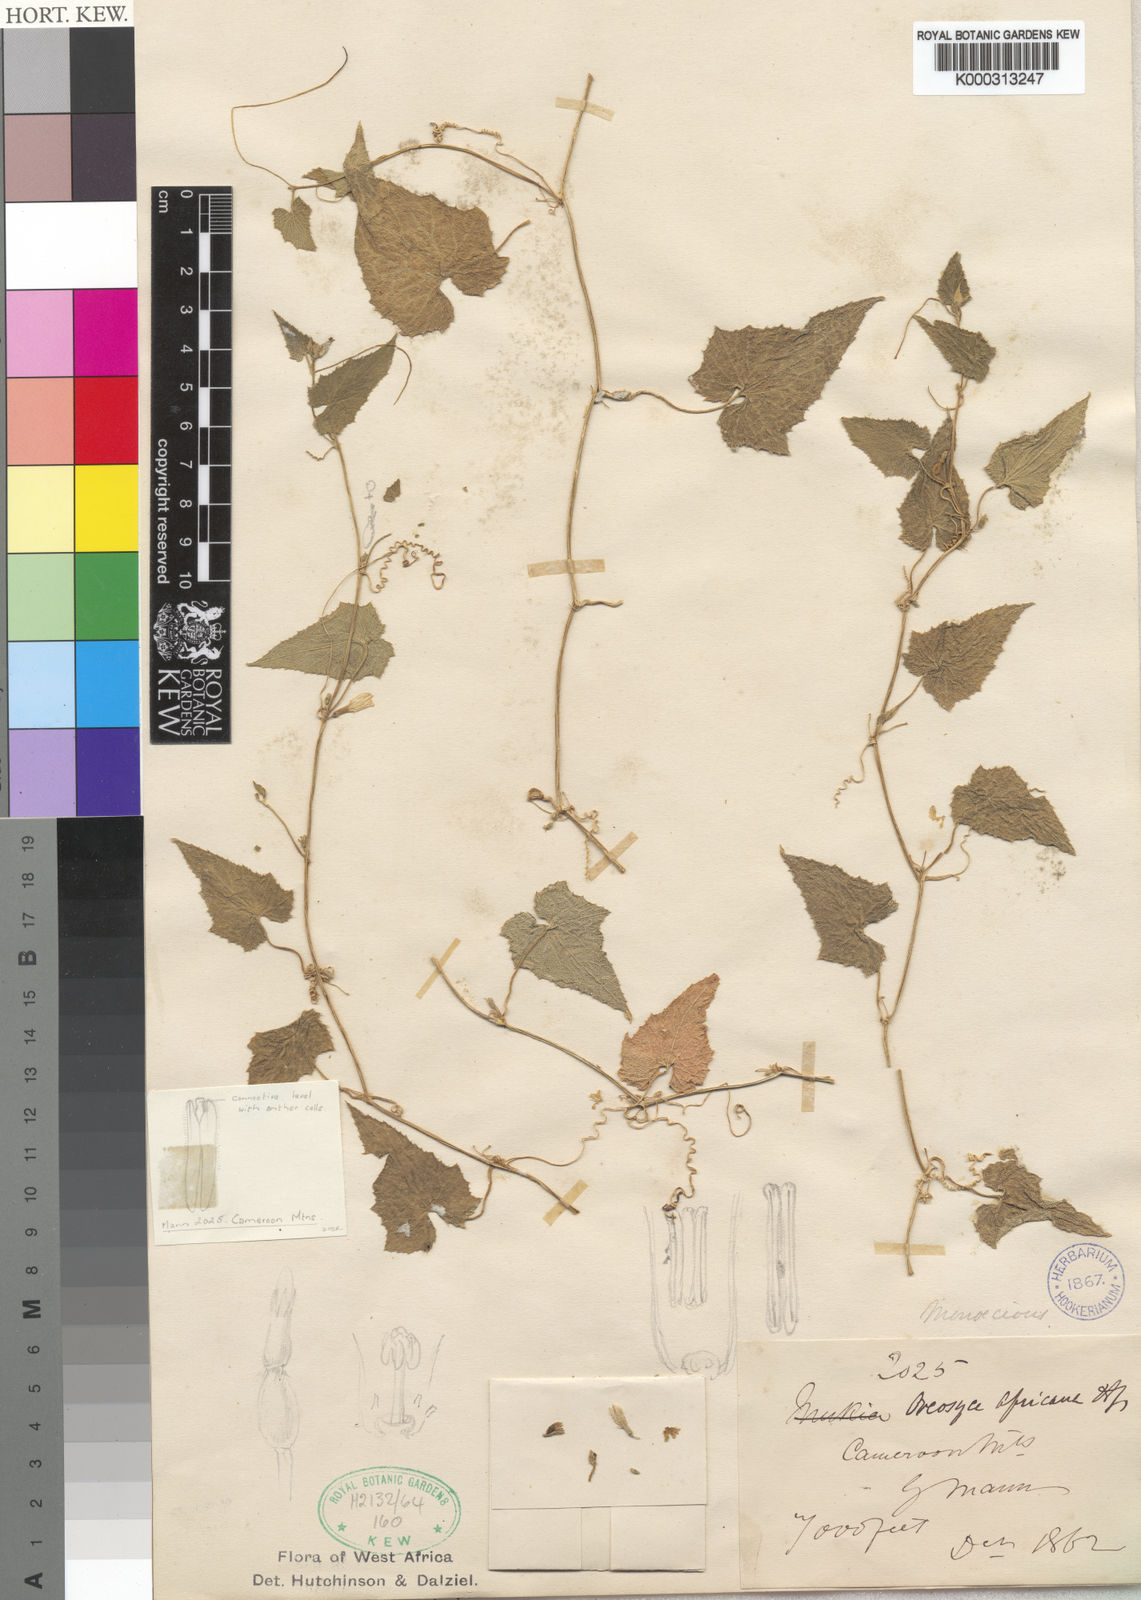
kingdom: Plantae
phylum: Tracheophyta
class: Magnoliopsida
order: Cucurbitales
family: Cucurbitaceae
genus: Cucumis
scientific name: Cucumis oreosyce
